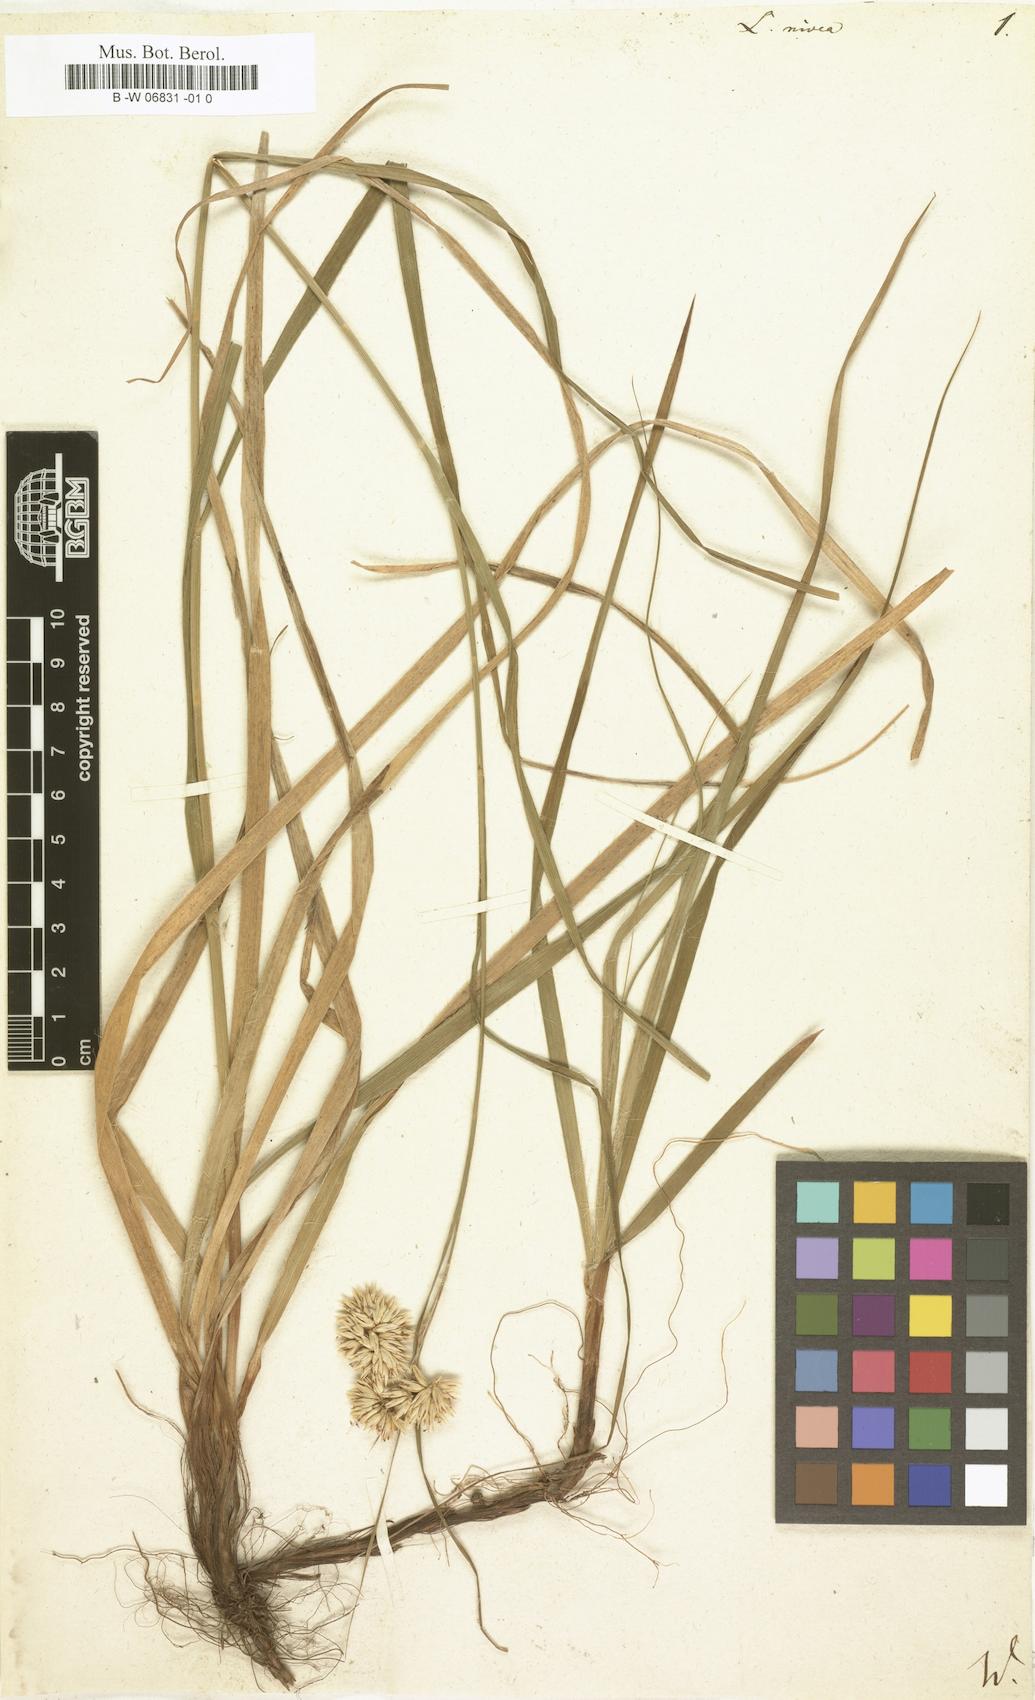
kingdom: Plantae
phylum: Tracheophyta
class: Liliopsida
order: Poales
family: Juncaceae
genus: Luzula
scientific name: Luzula nivea
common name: Snow-white wood-rush
